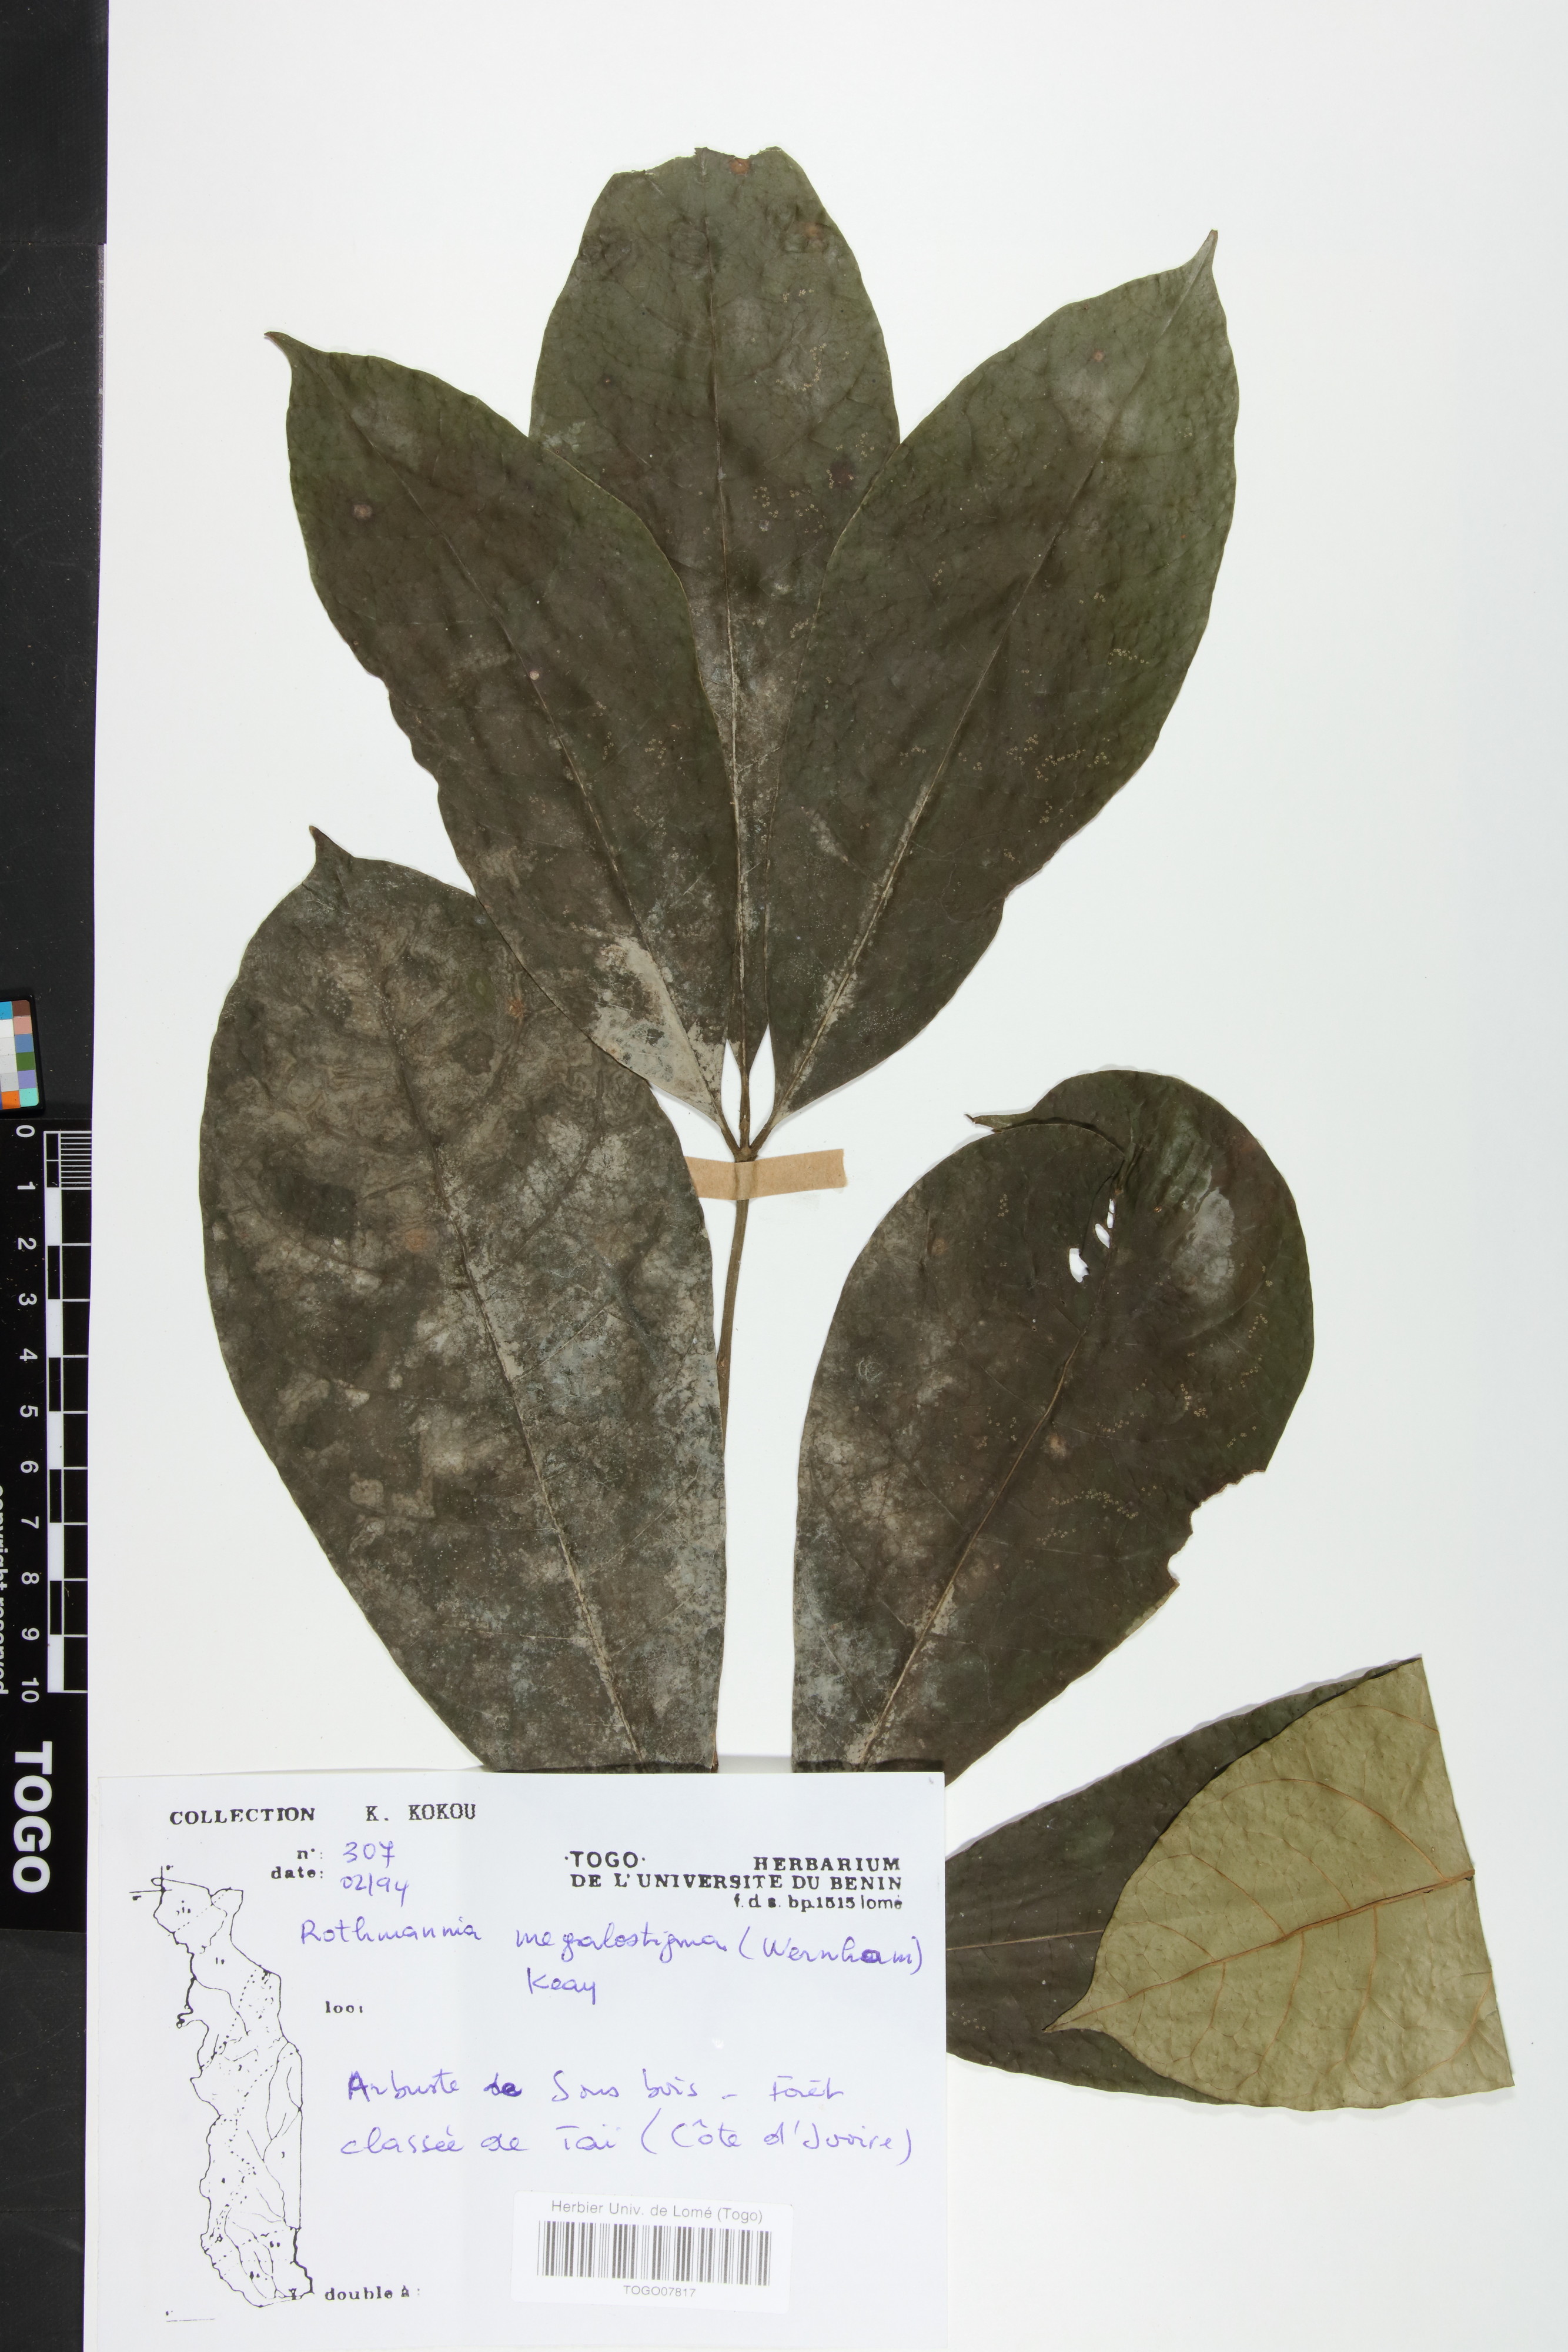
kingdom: Plantae
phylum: Tracheophyta
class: Magnoliopsida
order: Gentianales
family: Rubiaceae
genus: Rothmannia
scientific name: Rothmannia munsae
